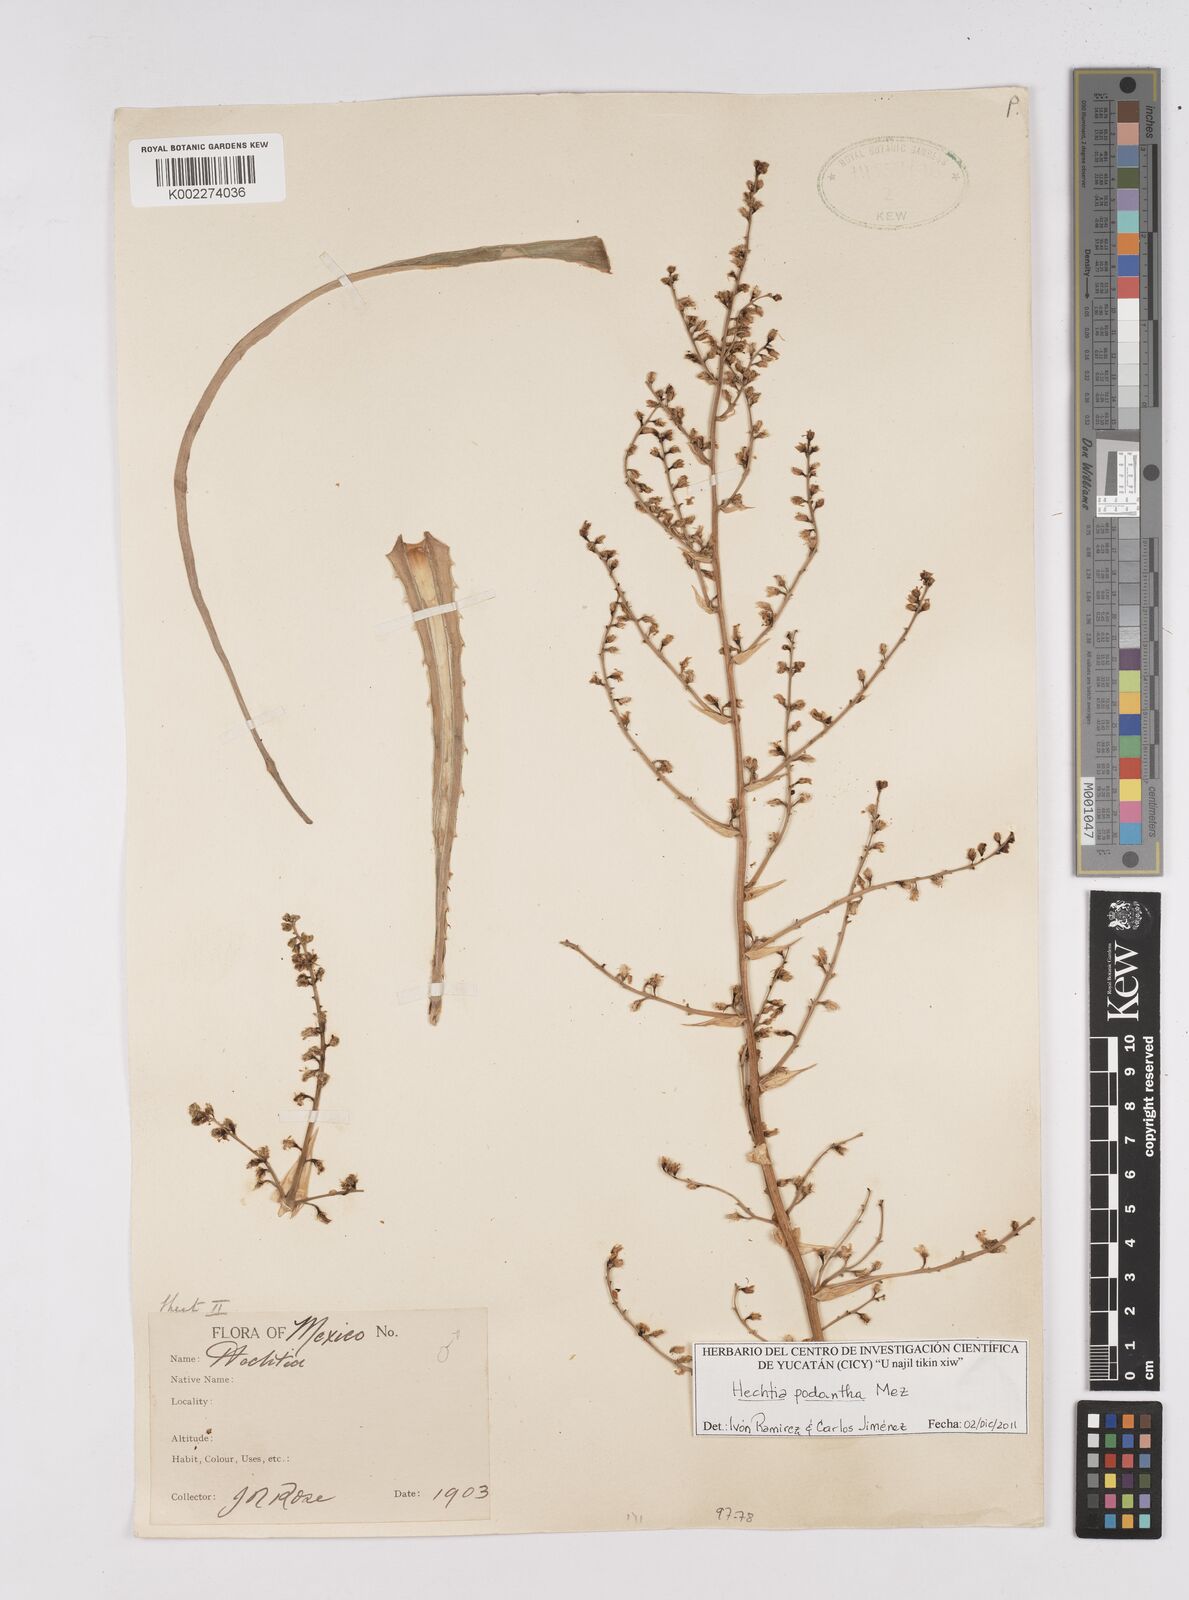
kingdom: Plantae
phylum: Tracheophyta
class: Liliopsida
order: Poales
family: Bromeliaceae
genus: Hechtia
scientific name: Hechtia podantha
